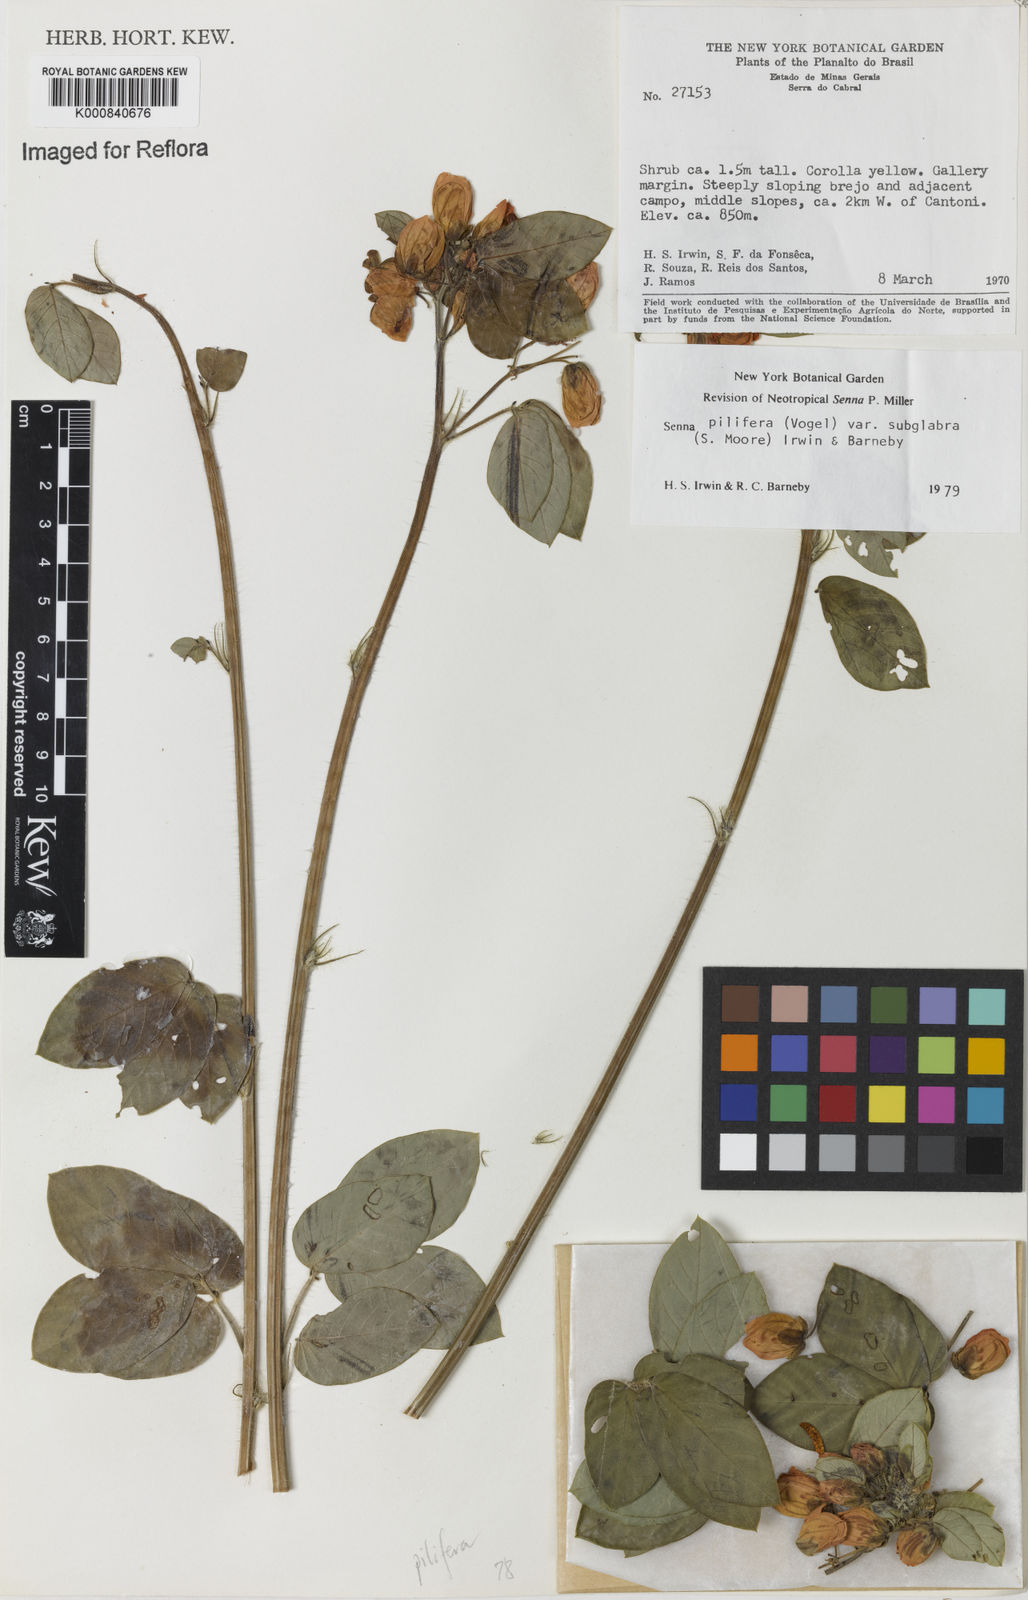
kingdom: Plantae
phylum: Tracheophyta
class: Magnoliopsida
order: Fabales
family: Fabaceae
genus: Senna
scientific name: Senna pilifera
